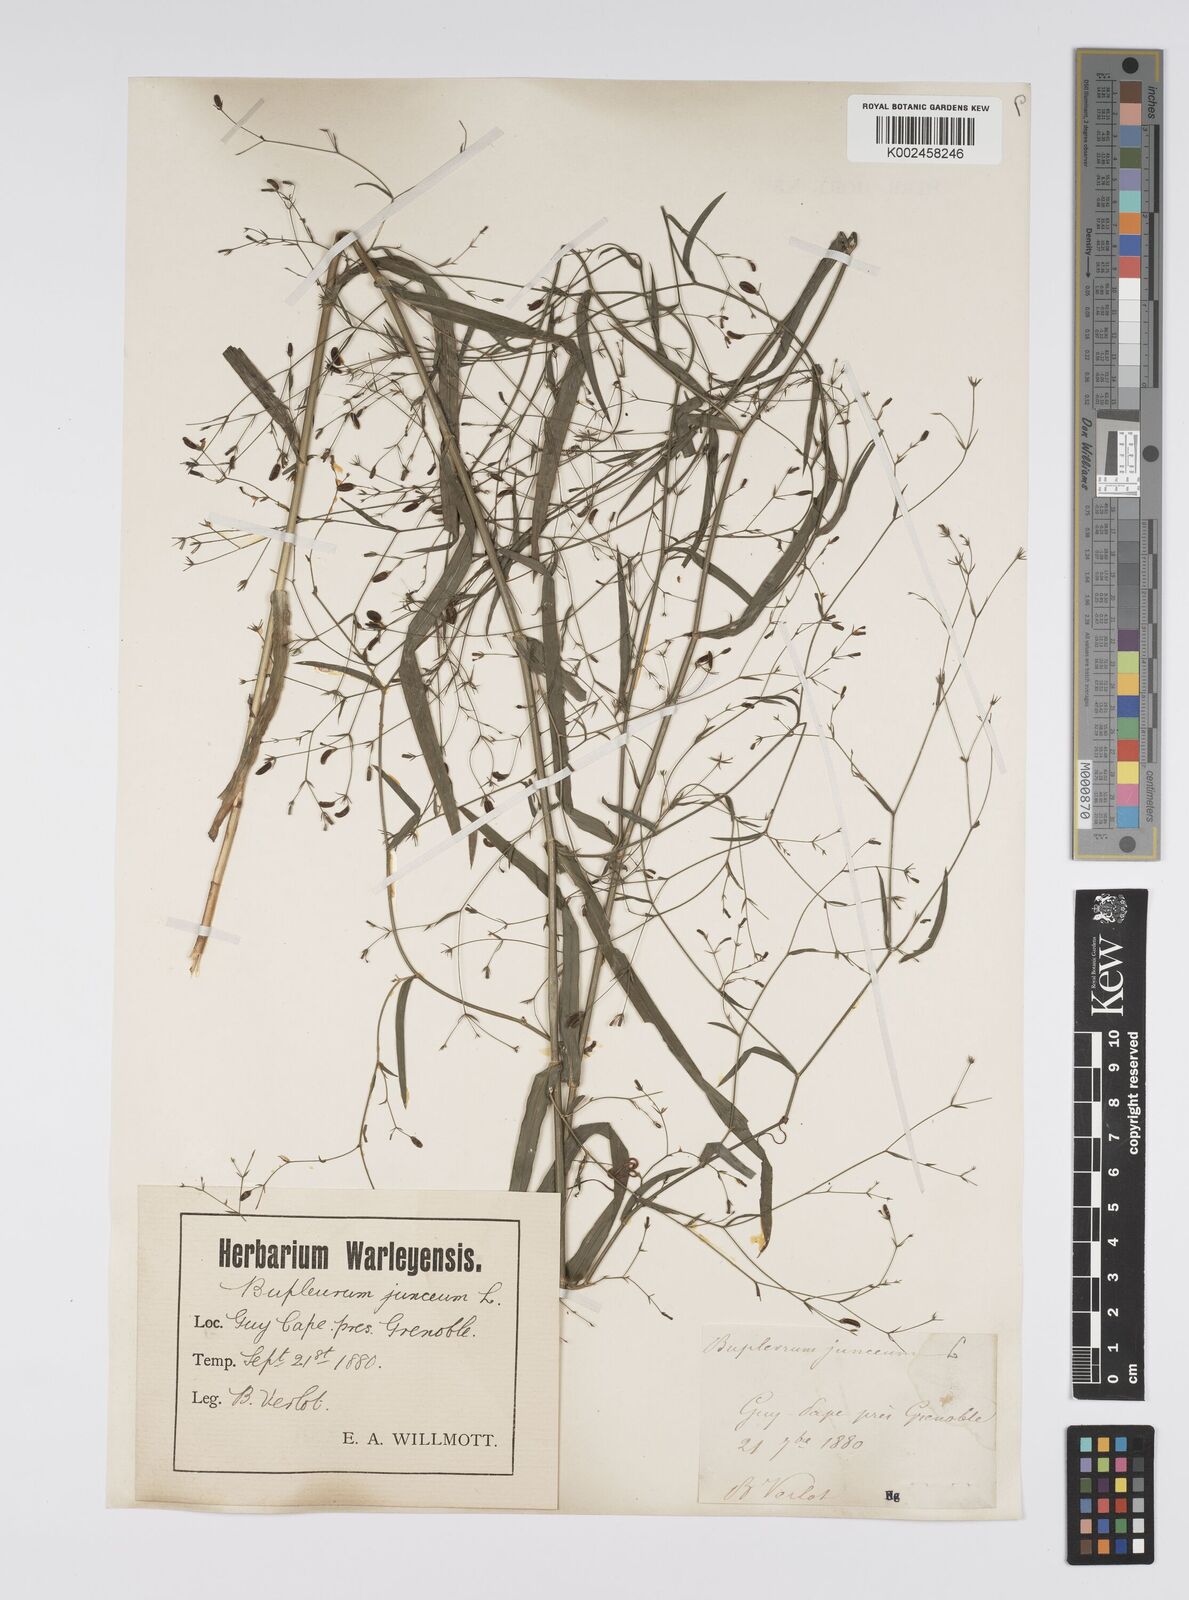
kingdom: Plantae
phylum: Tracheophyta
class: Magnoliopsida
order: Apiales
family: Apiaceae
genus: Bupleurum
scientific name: Bupleurum praealtum
